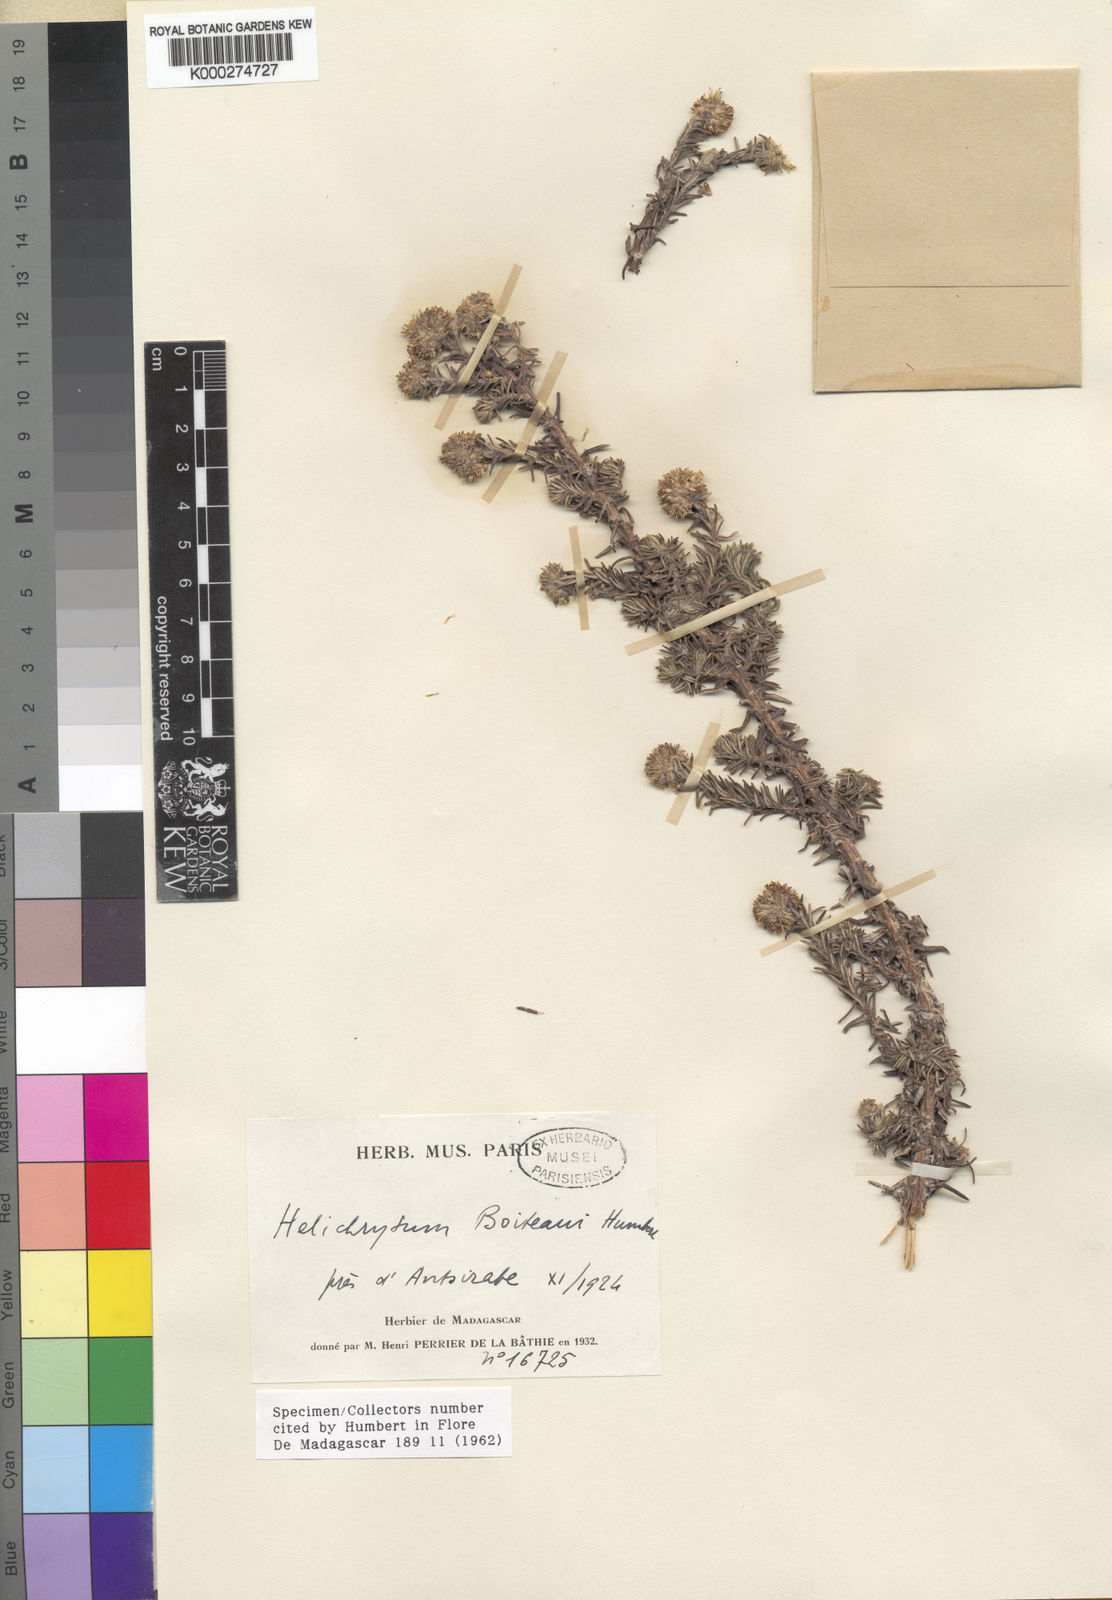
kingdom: Plantae
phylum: Tracheophyta
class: Magnoliopsida
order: Asterales
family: Asteraceae
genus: Helichrysum
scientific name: Helichrysum boiteaui
